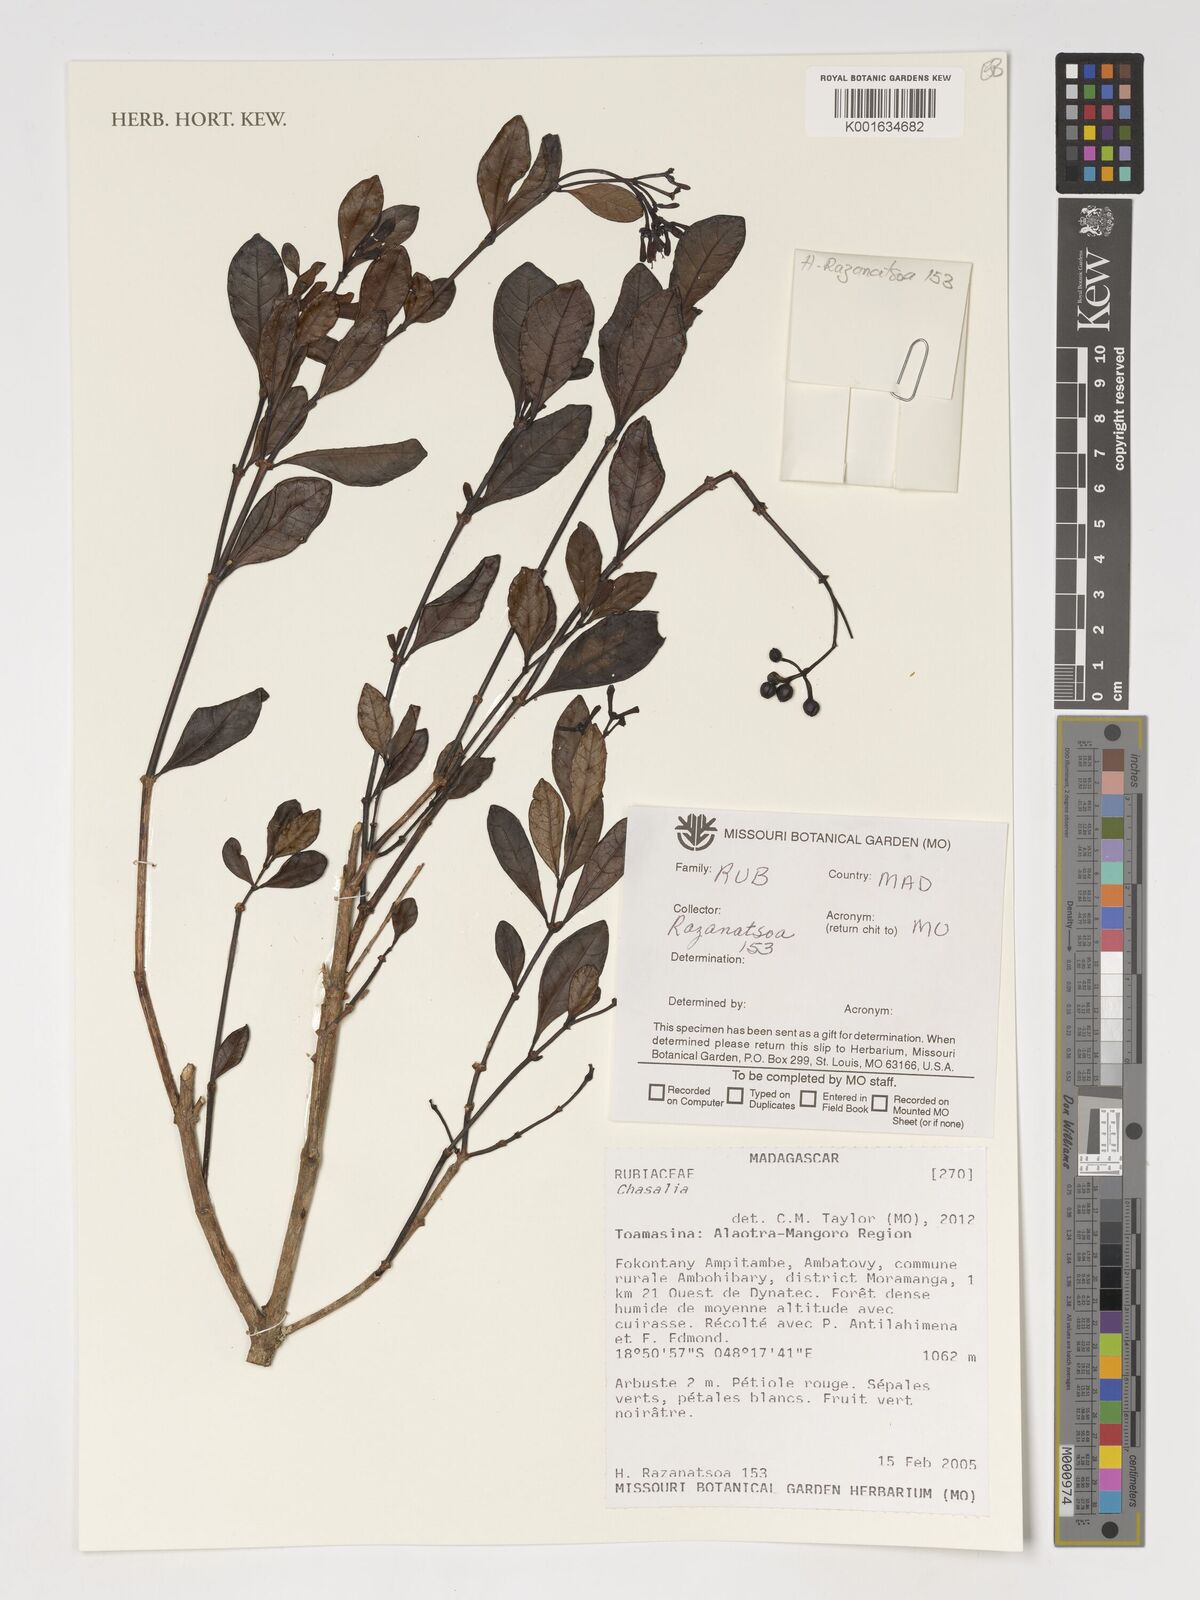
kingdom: Plantae
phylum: Tracheophyta
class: Magnoliopsida
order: Gentianales
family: Rubiaceae
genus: Chassalia
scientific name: Chassalia
